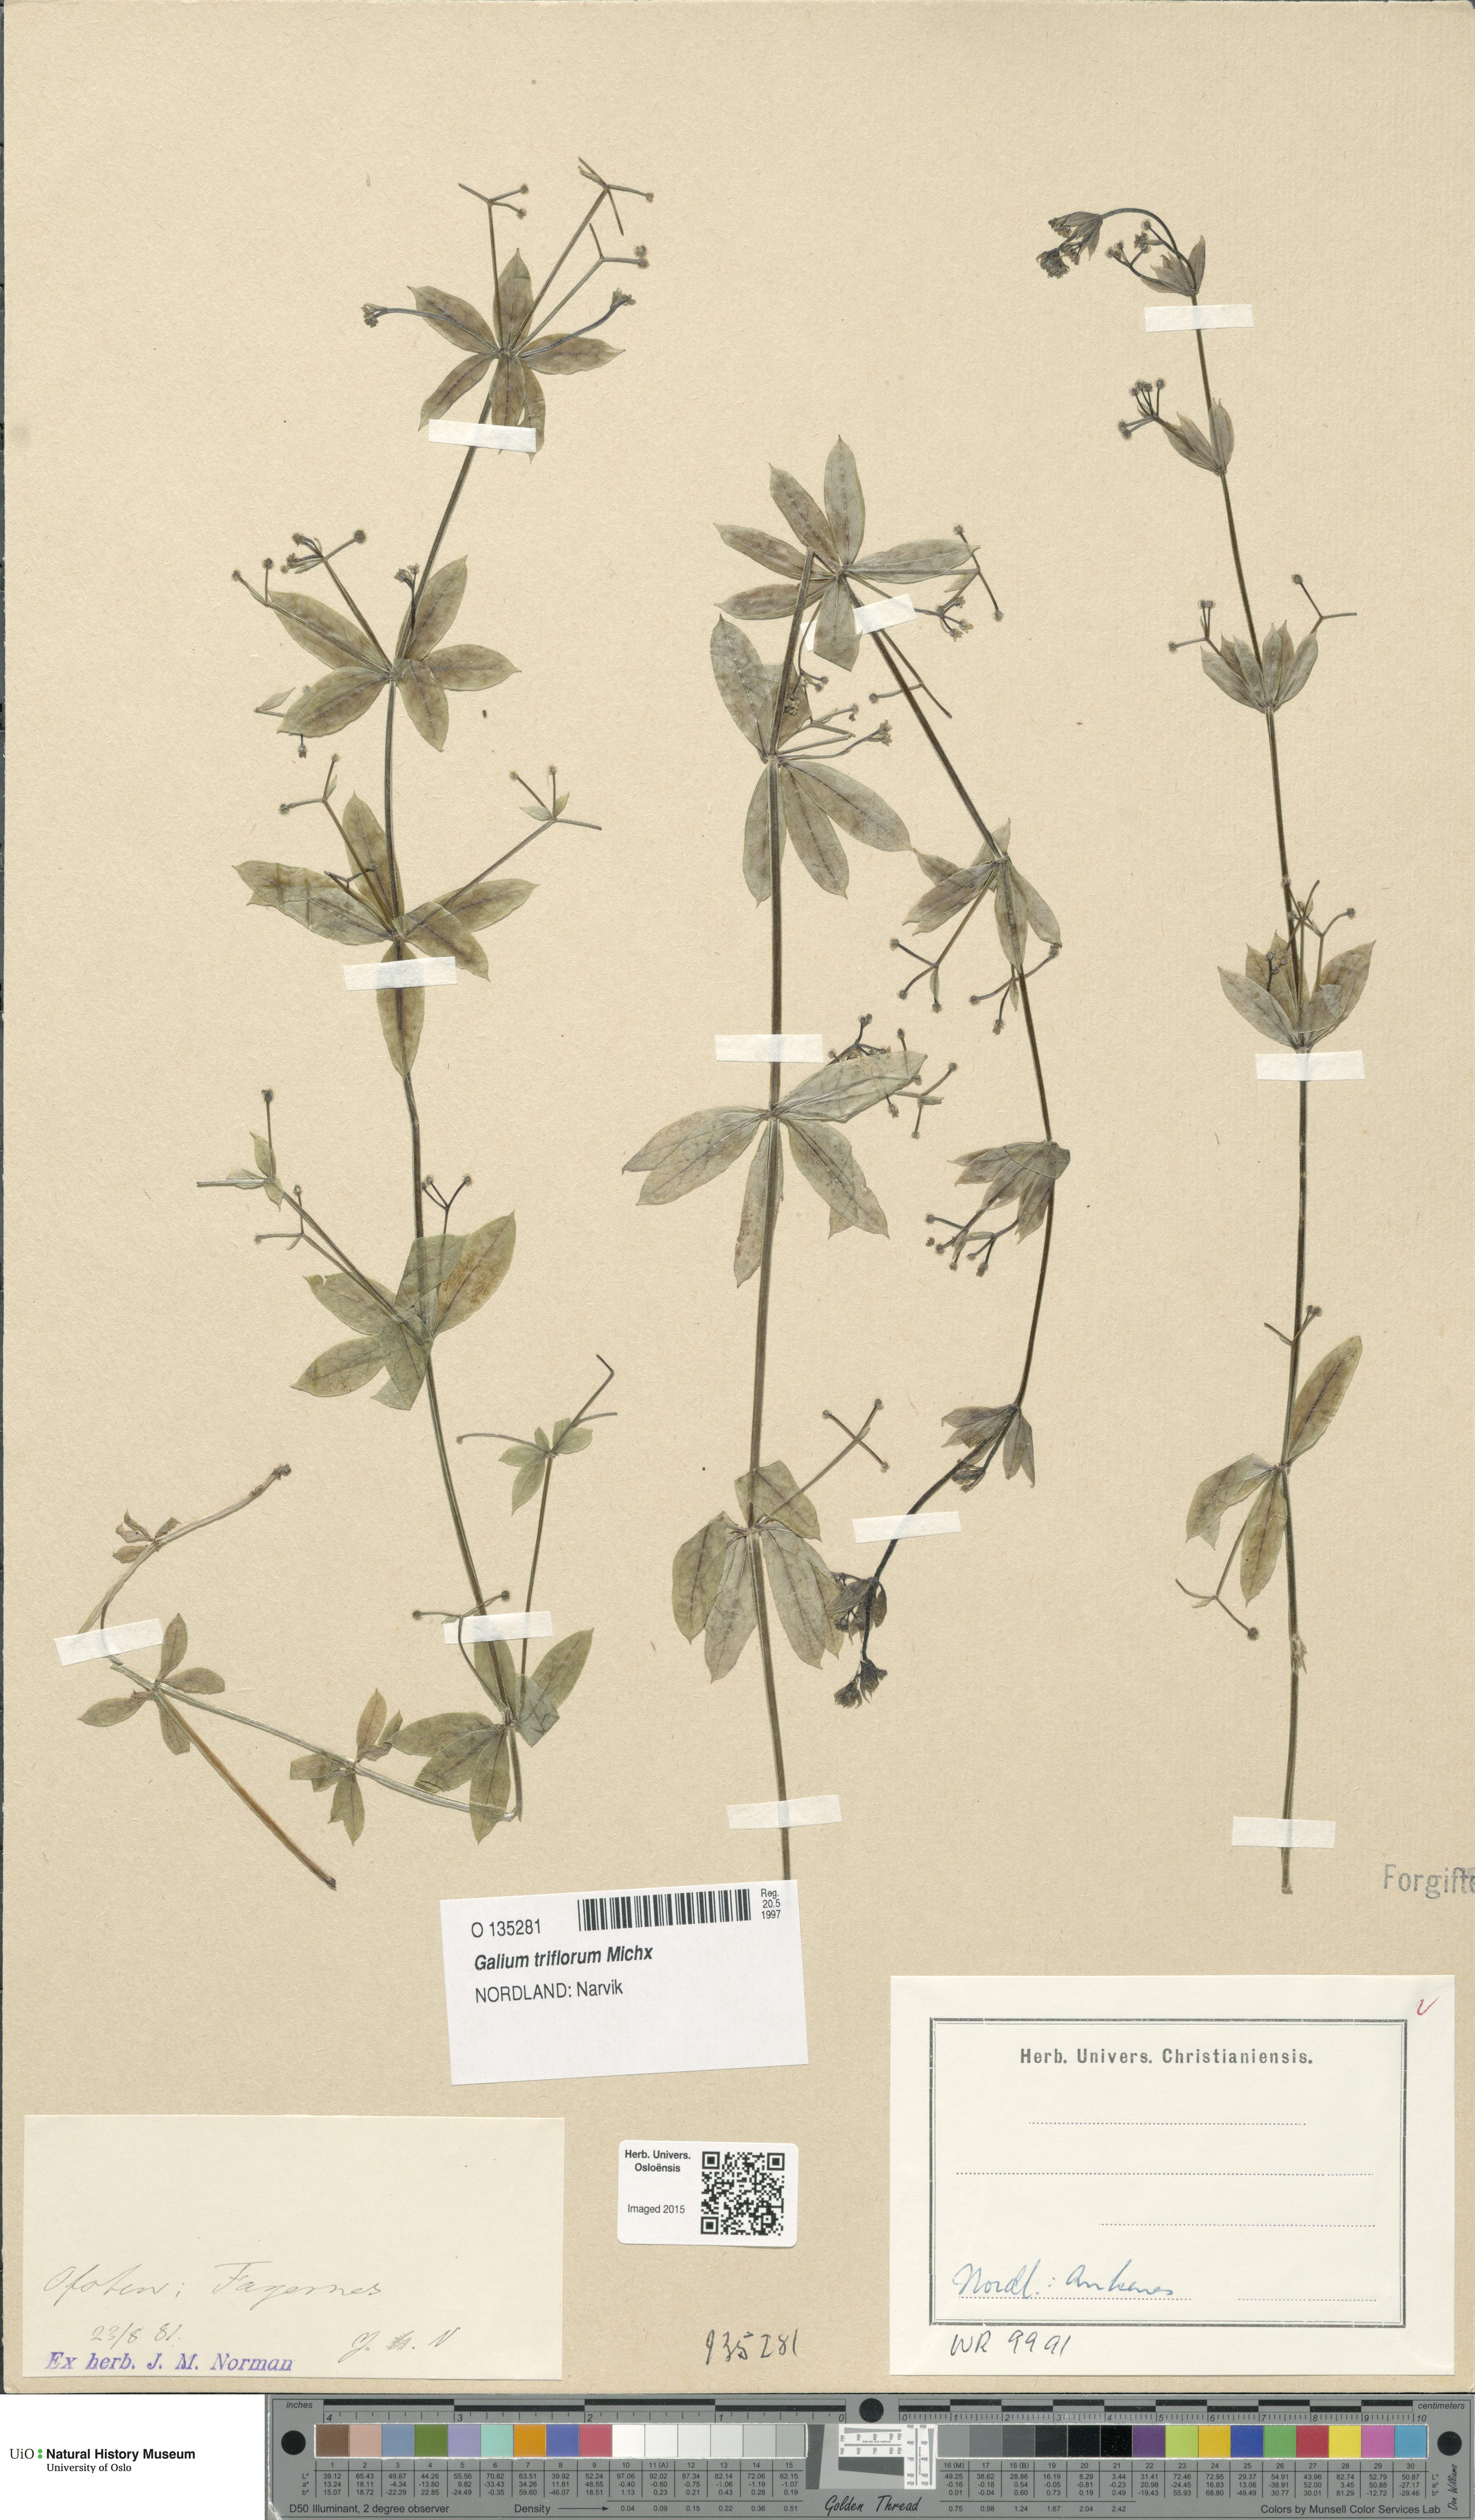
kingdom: Plantae
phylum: Tracheophyta
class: Magnoliopsida
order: Gentianales
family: Rubiaceae
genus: Galium
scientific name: Galium triflorum
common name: Fragrant bedstraw
